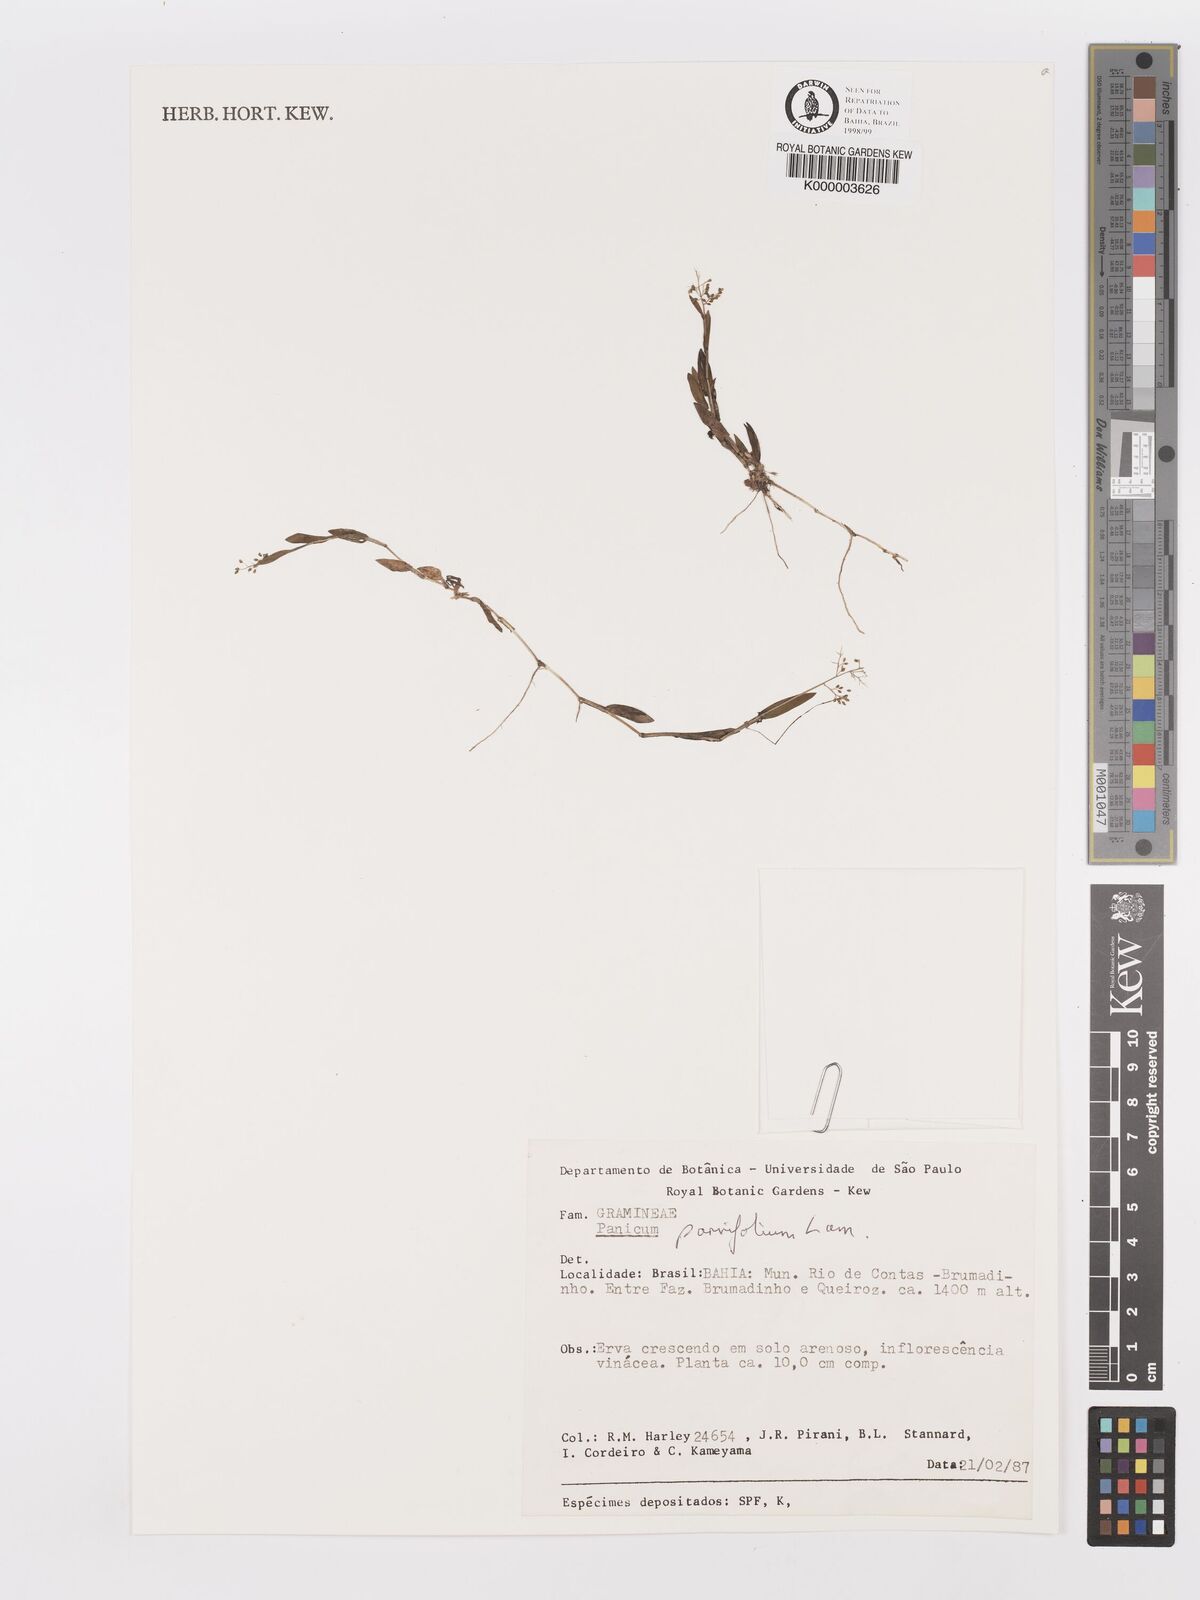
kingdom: Plantae
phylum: Tracheophyta
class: Liliopsida
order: Poales
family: Poaceae
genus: Trichanthecium
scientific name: Trichanthecium parvifolium
